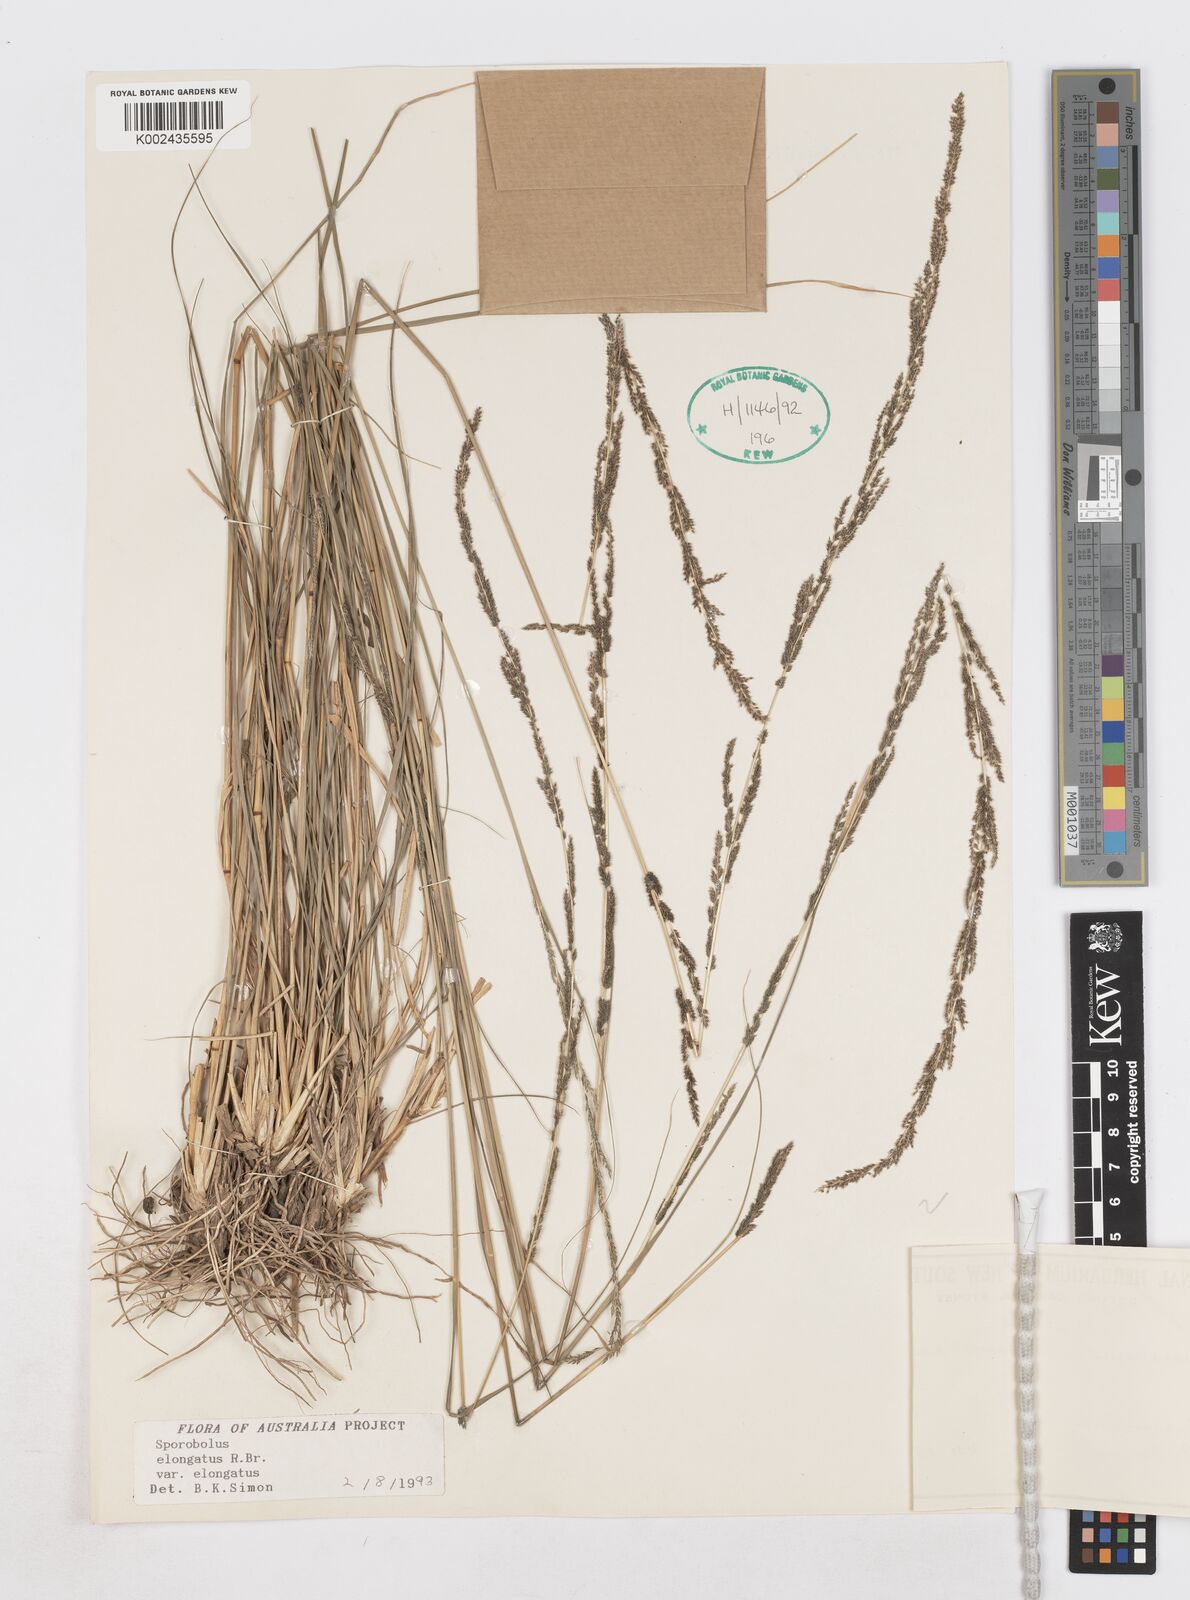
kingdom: Plantae
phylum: Tracheophyta
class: Liliopsida
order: Poales
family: Poaceae
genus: Sporobolus
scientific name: Sporobolus elongatus
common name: Rat tail grass
